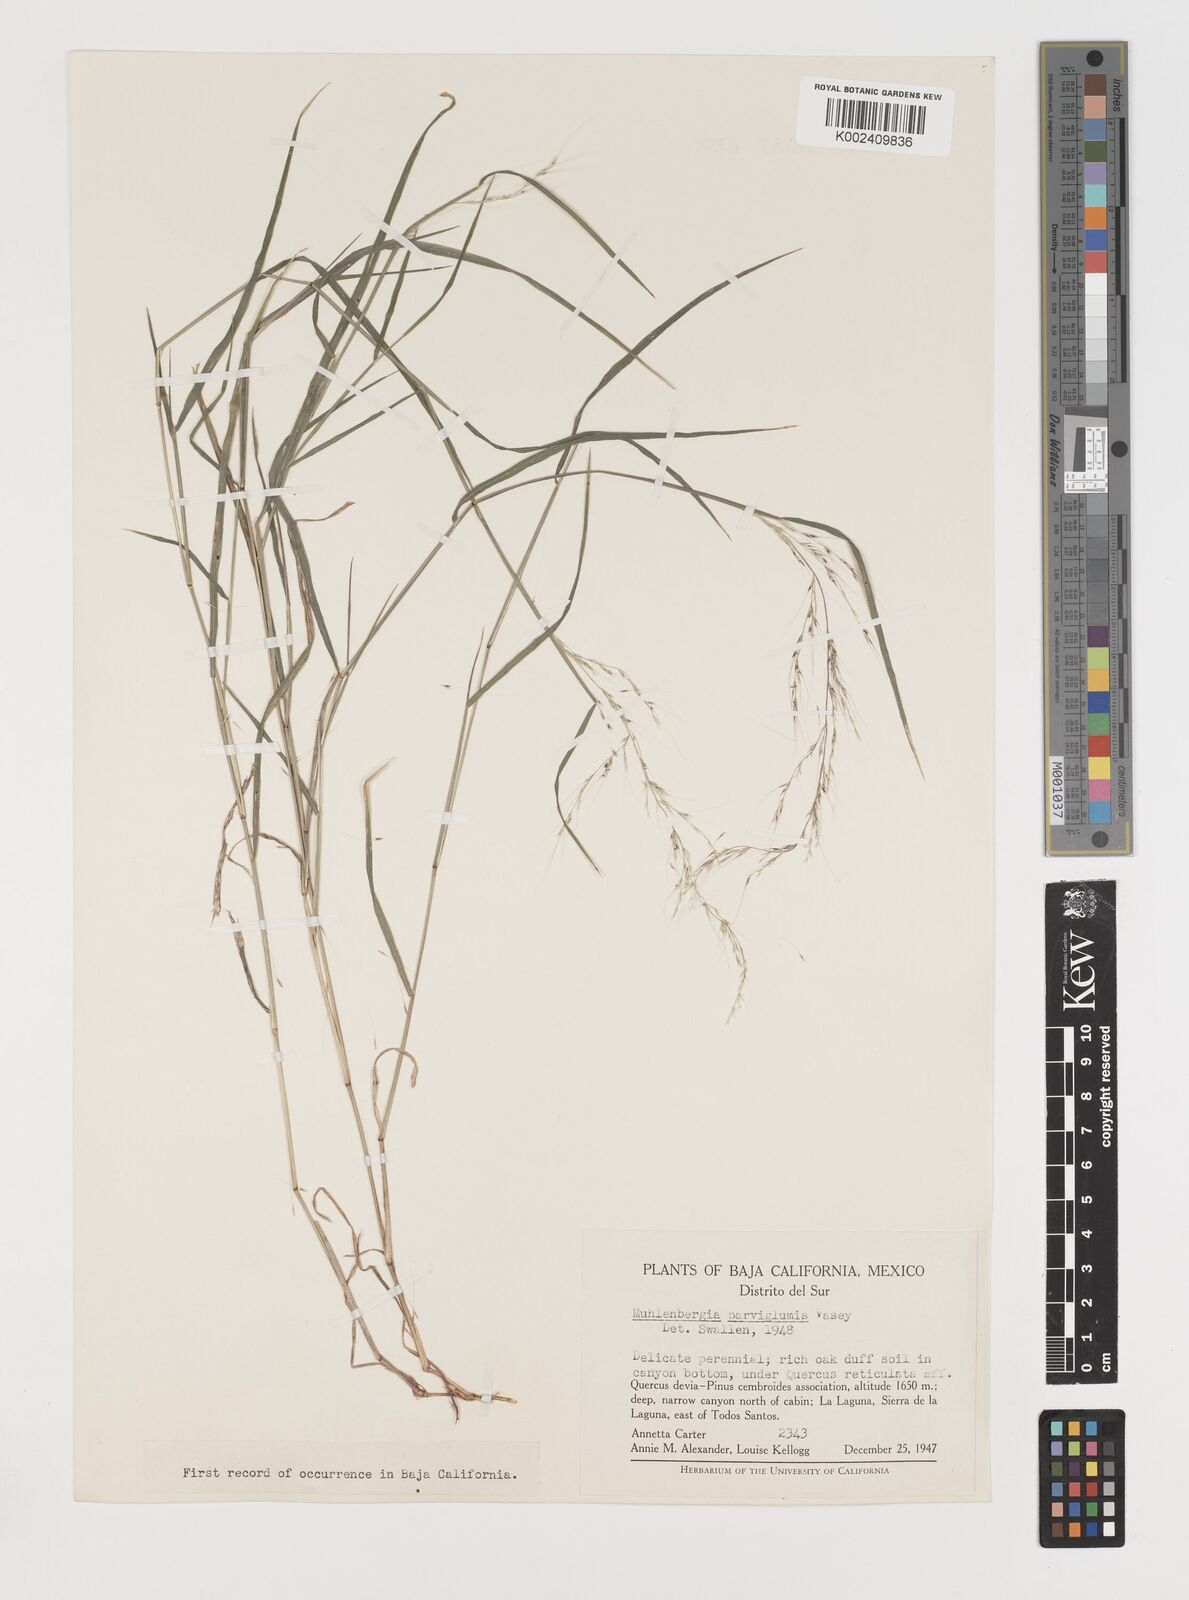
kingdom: Plantae
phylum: Tracheophyta
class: Liliopsida
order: Poales
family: Poaceae
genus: Muhlenbergia
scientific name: Muhlenbergia spiciformis
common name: Longawn muhly
